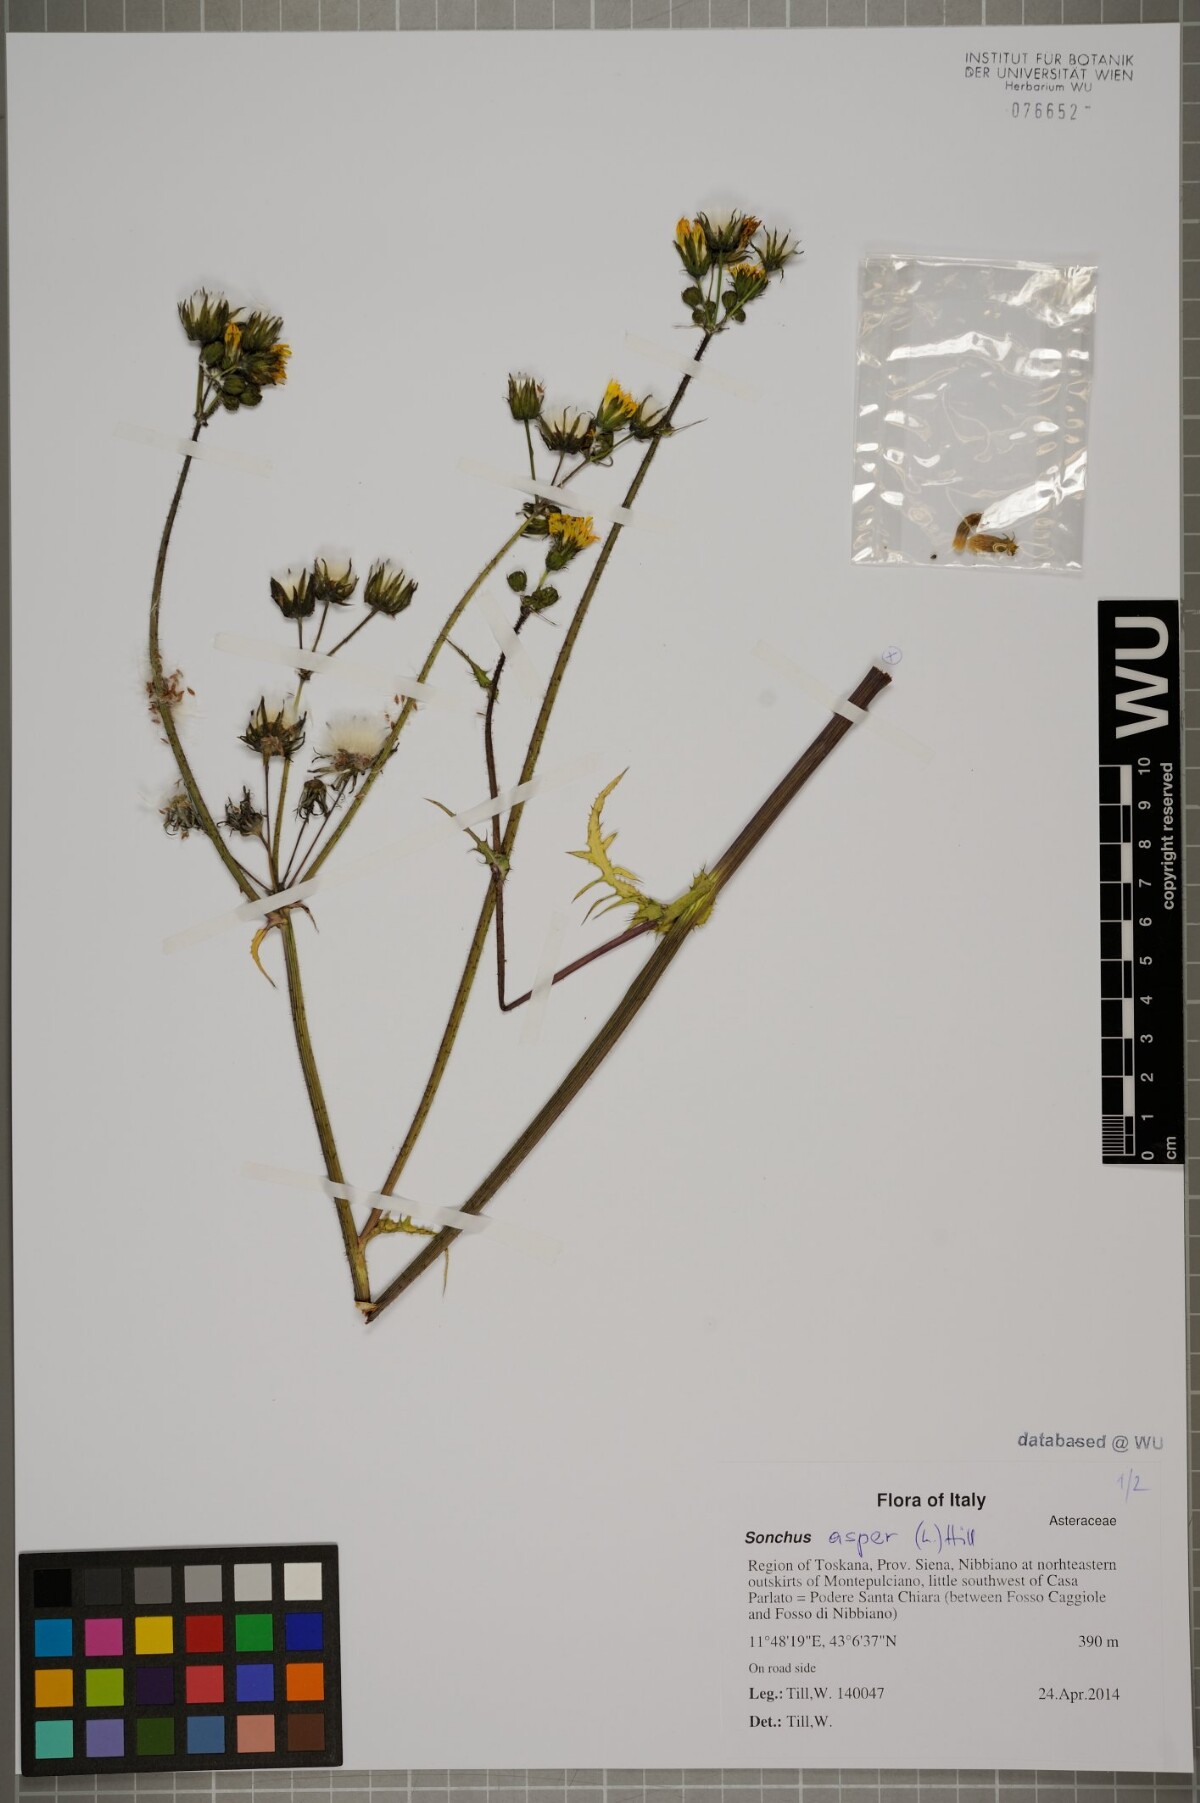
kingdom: Plantae
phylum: Tracheophyta
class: Magnoliopsida
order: Asterales
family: Asteraceae
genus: Sonchus
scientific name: Sonchus asper
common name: Prickly sow-thistle
